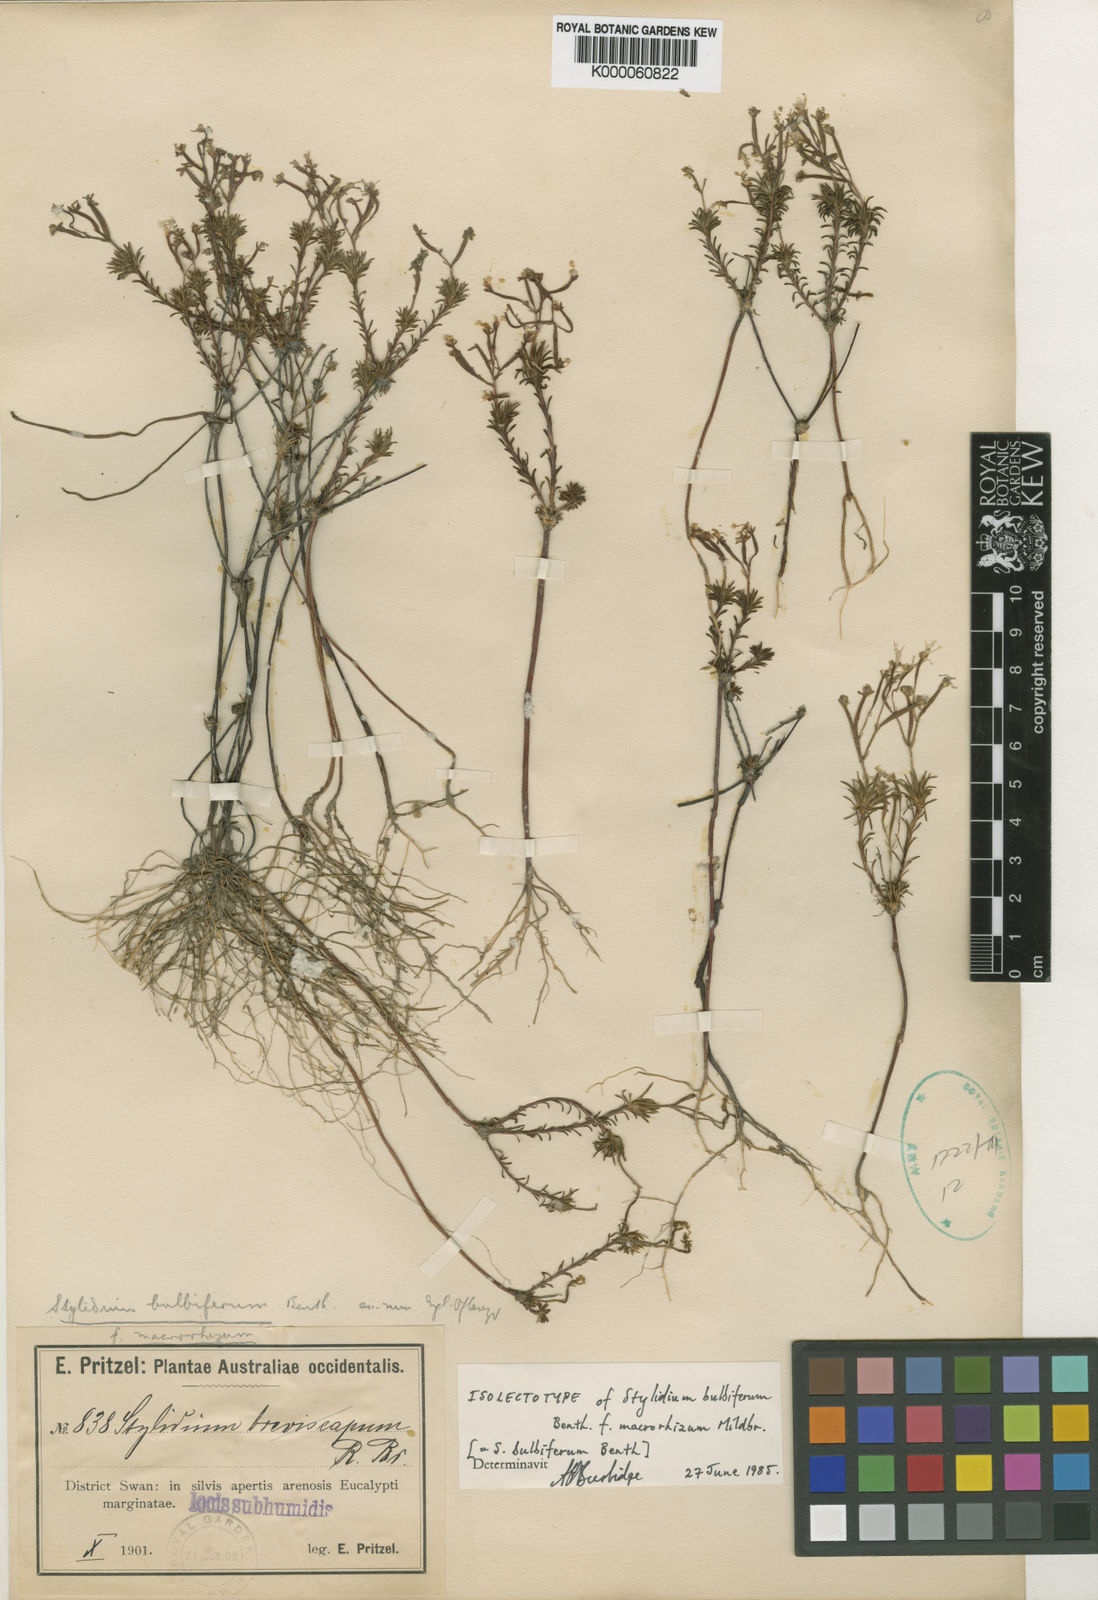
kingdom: Plantae
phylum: Tracheophyta
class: Magnoliopsida
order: Asterales
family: Stylidiaceae
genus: Stylidium
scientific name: Stylidium bulbiferum
